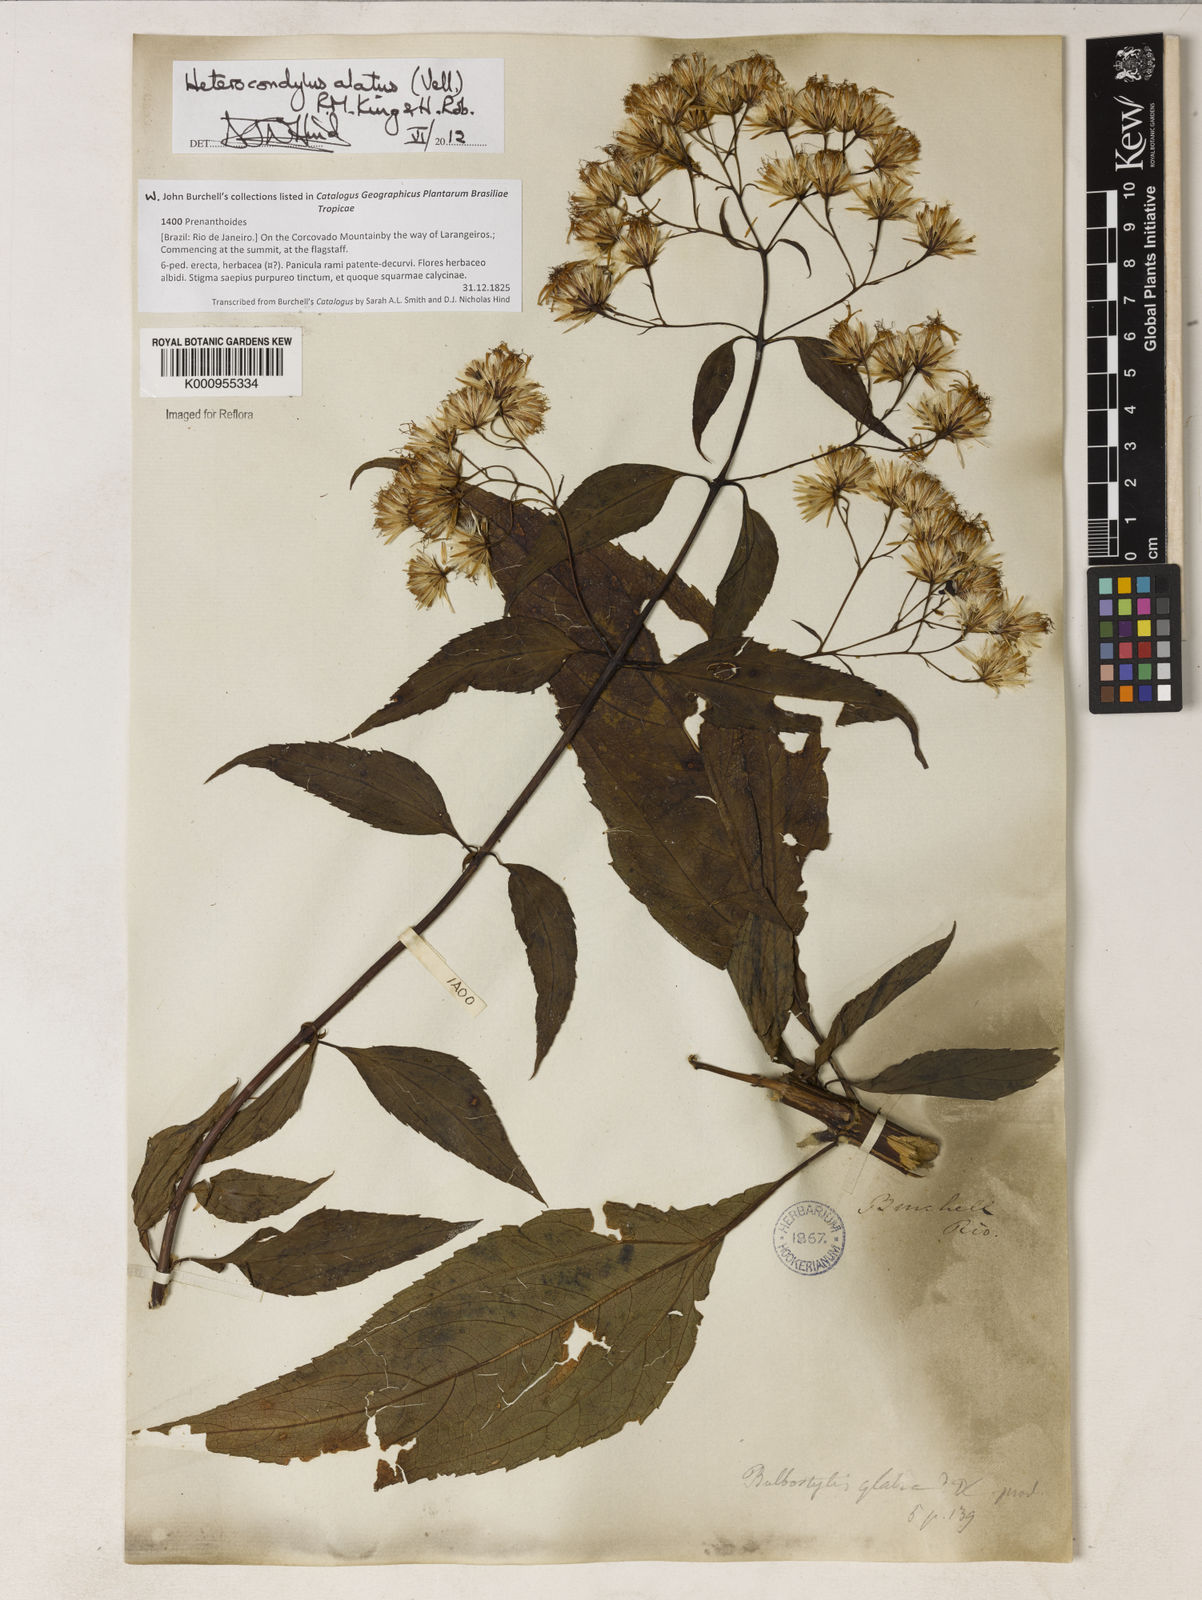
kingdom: Plantae
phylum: Tracheophyta
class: Magnoliopsida
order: Asterales
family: Asteraceae
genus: Heterocondylus
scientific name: Heterocondylus alatus
